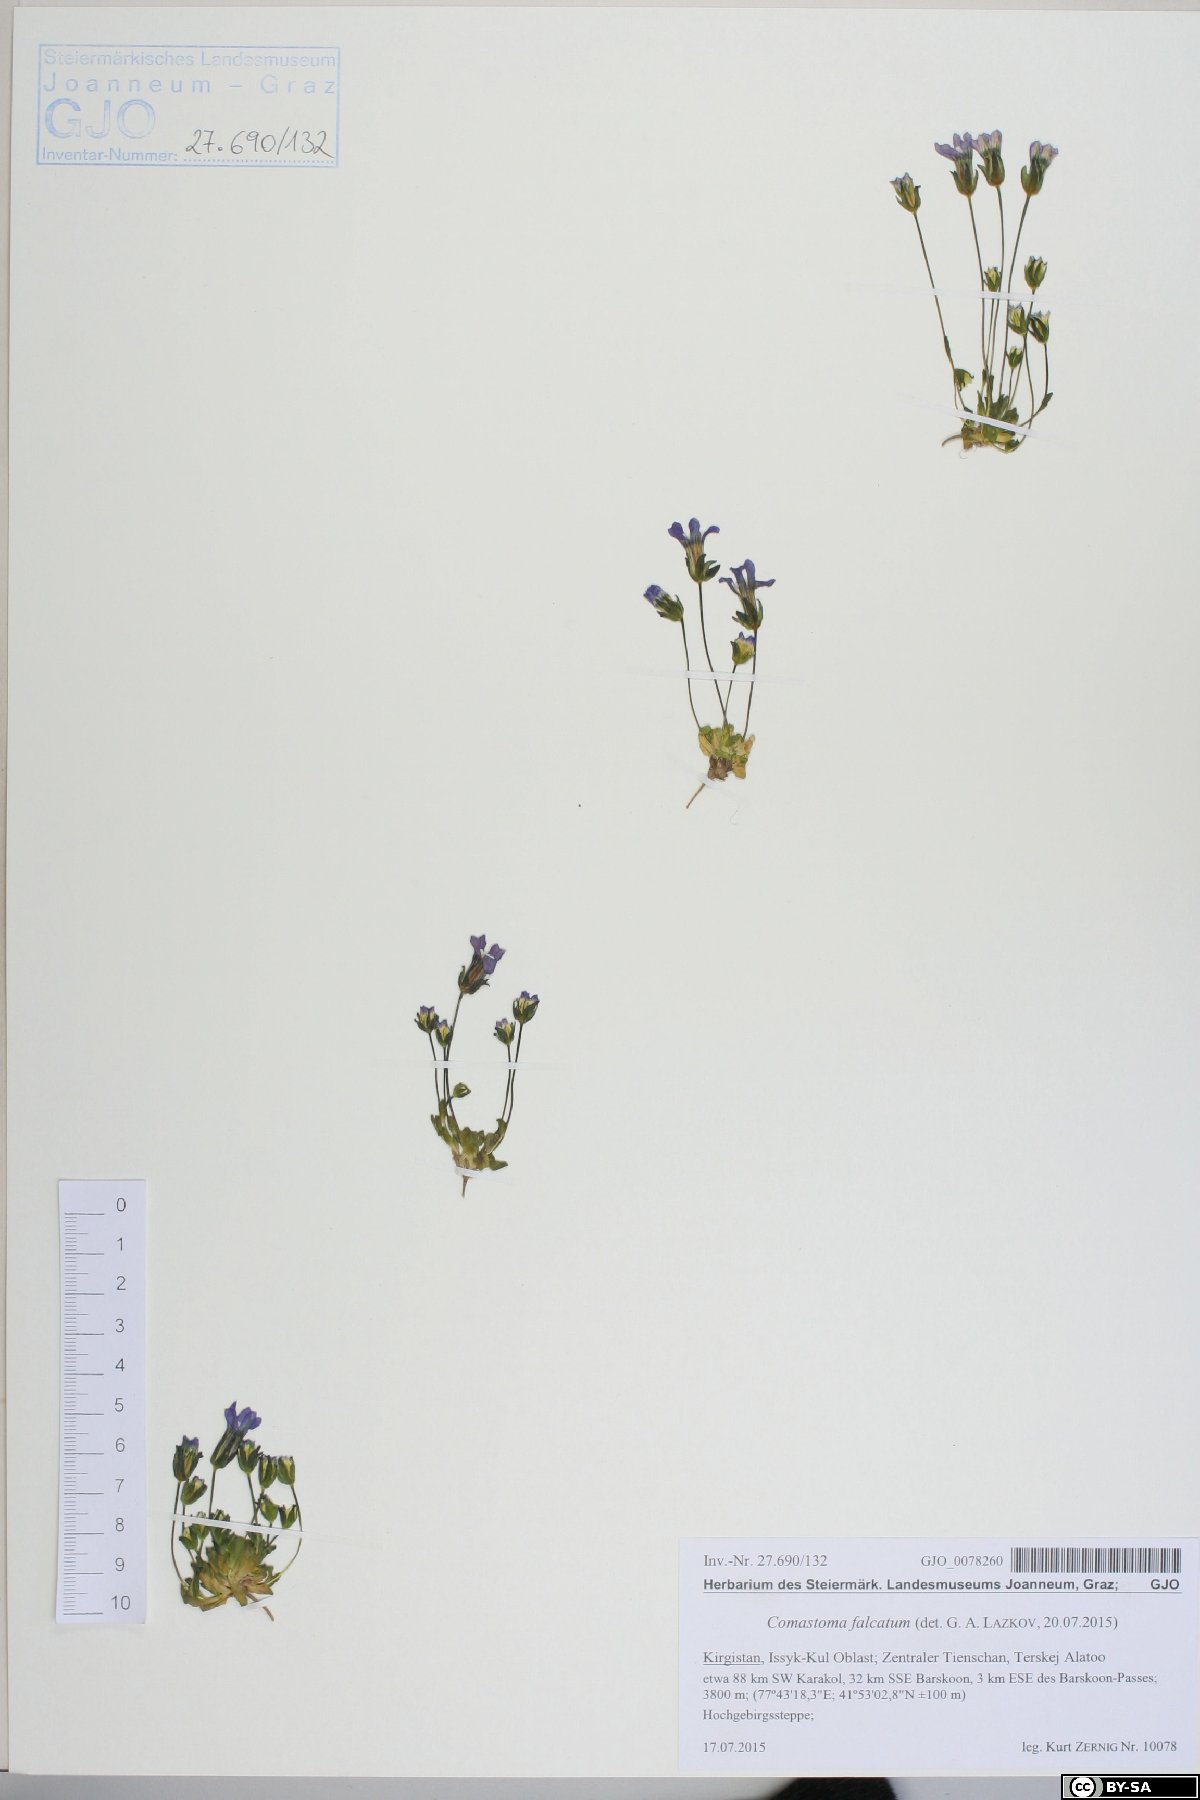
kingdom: Plantae
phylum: Tracheophyta
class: Magnoliopsida
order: Gentianales
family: Gentianaceae
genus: Comastoma
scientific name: Comastoma falcatum
